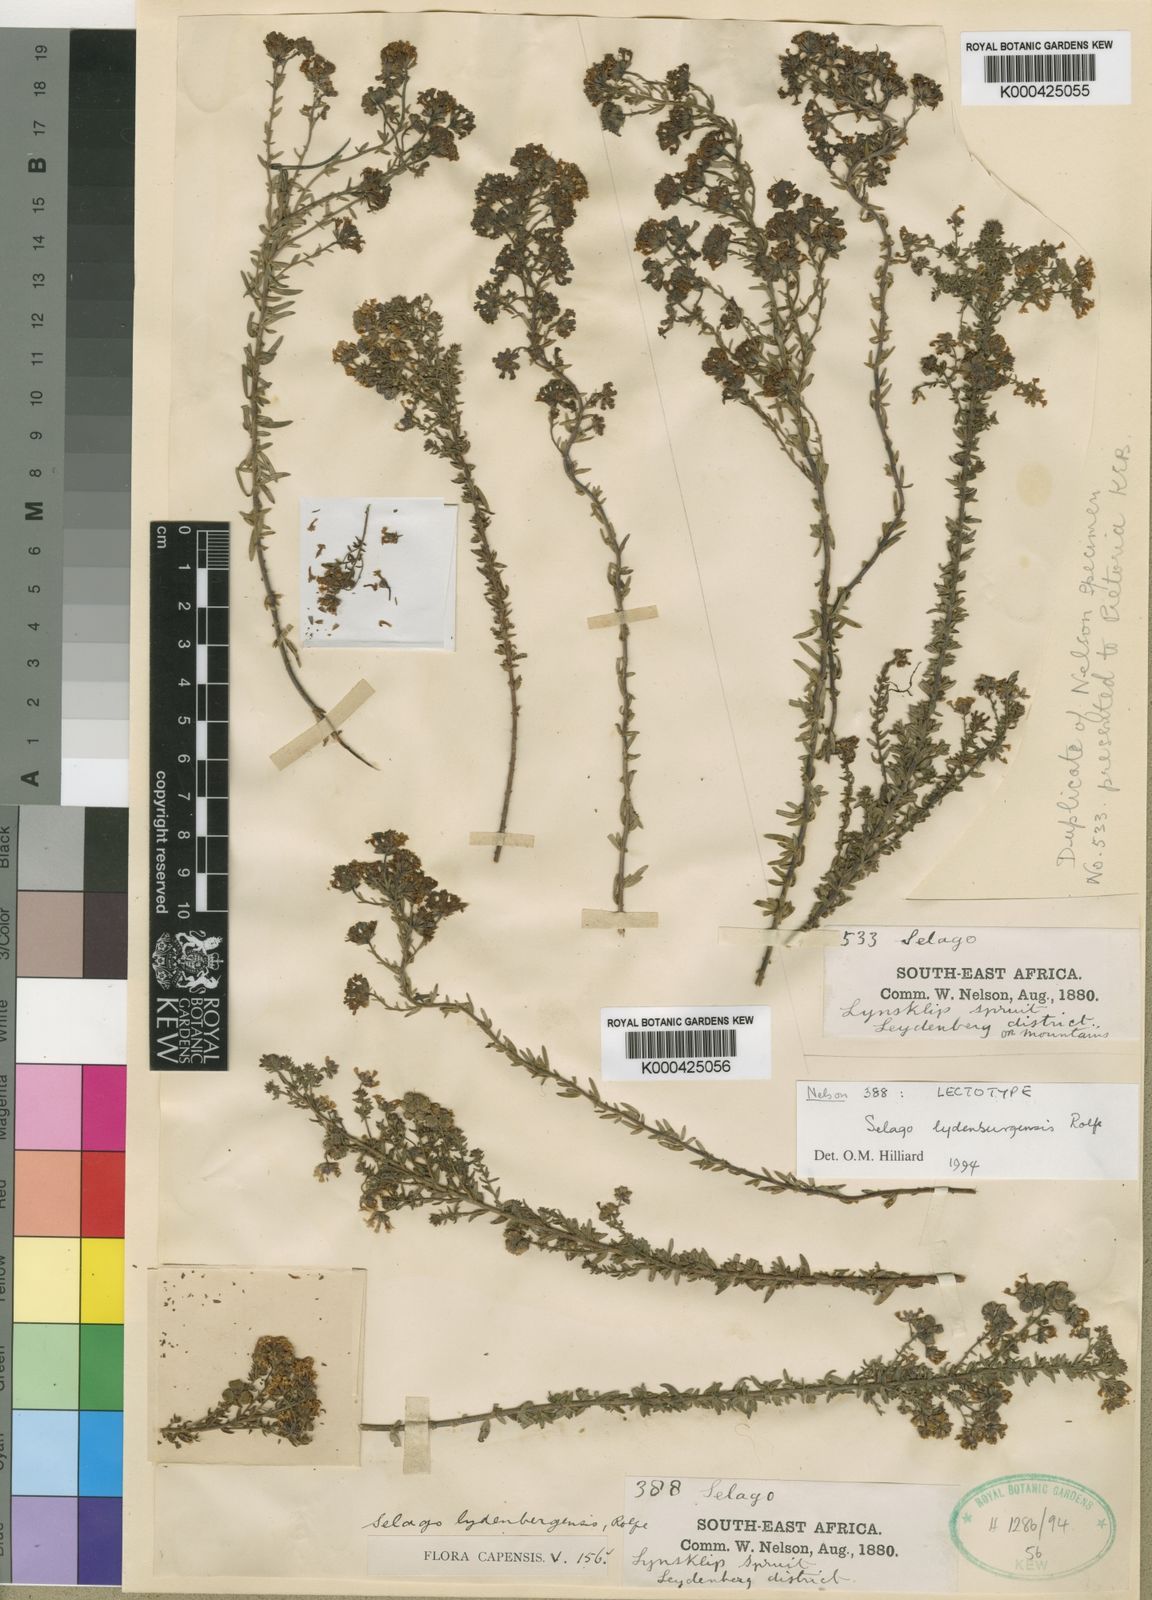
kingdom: Plantae
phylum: Tracheophyta
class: Magnoliopsida
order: Lamiales
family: Scrophulariaceae
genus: Selago
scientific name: Selago
